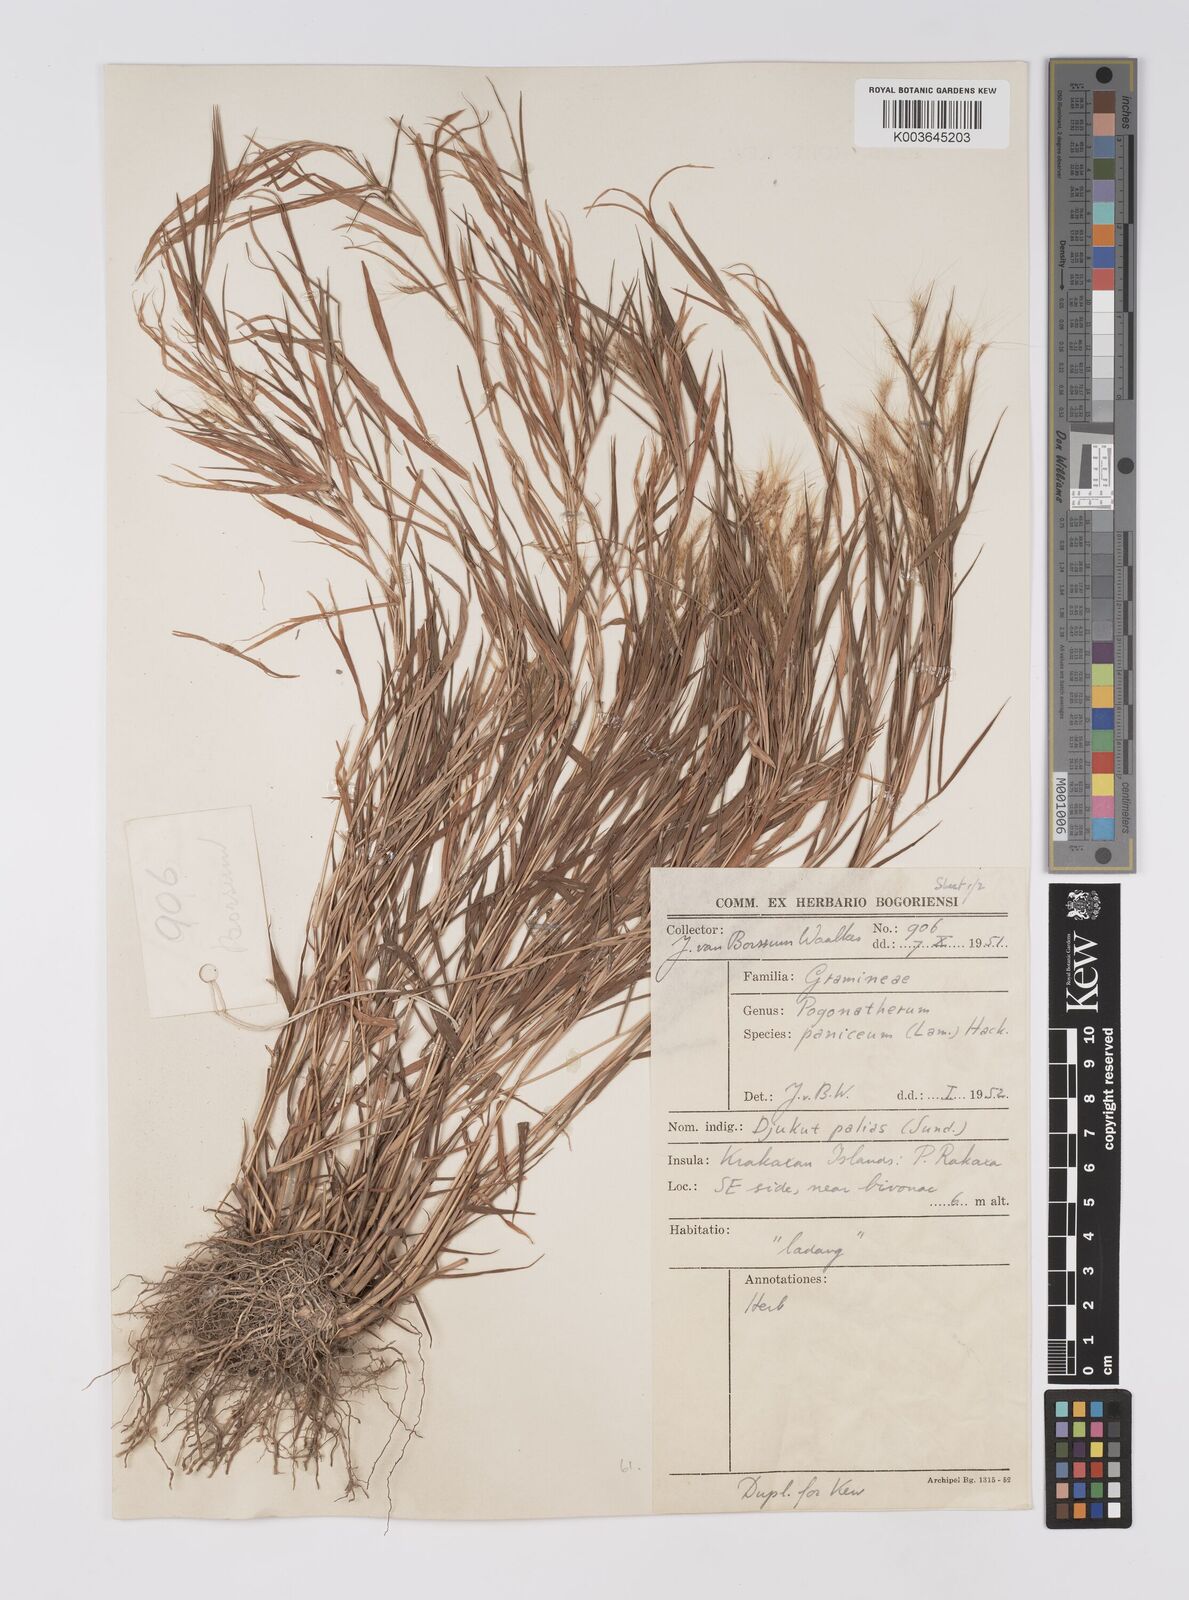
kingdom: Plantae
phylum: Tracheophyta
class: Liliopsida
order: Poales
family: Poaceae
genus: Pogonatherum
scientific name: Pogonatherum paniceum
